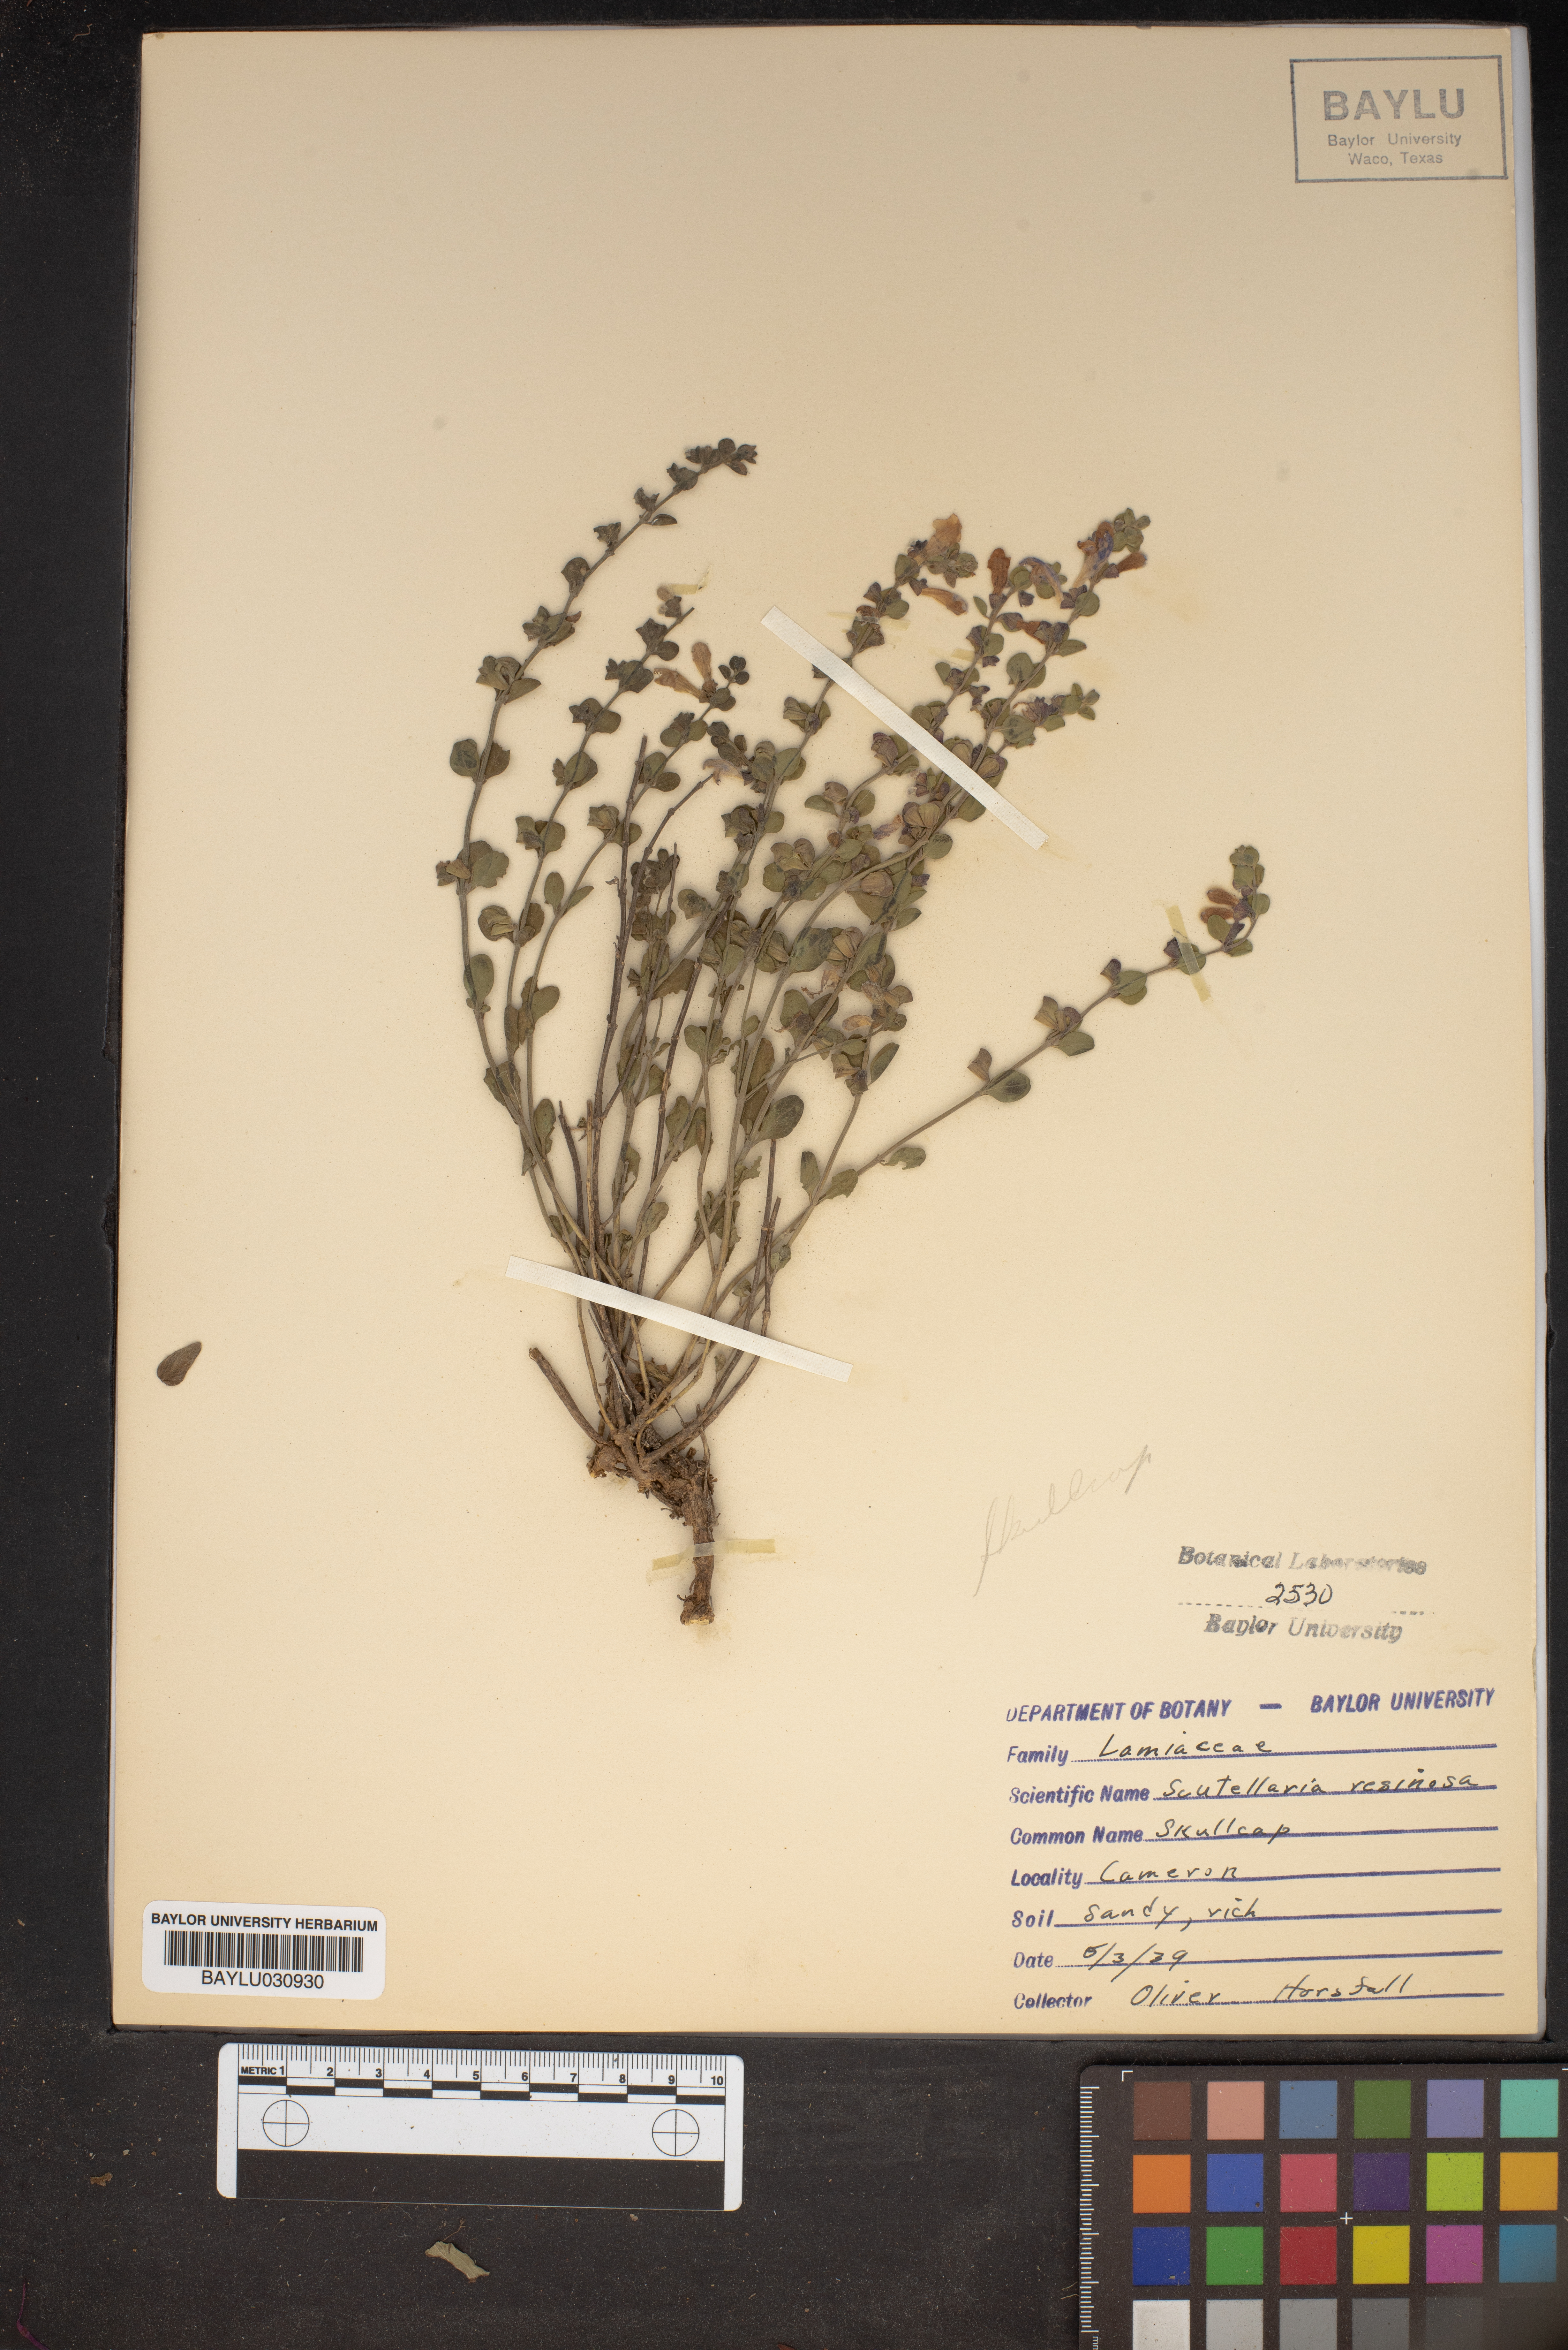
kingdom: Plantae
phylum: Tracheophyta
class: Magnoliopsida
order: Lamiales
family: Lamiaceae
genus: Scutellaria
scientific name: Scutellaria resinosa
